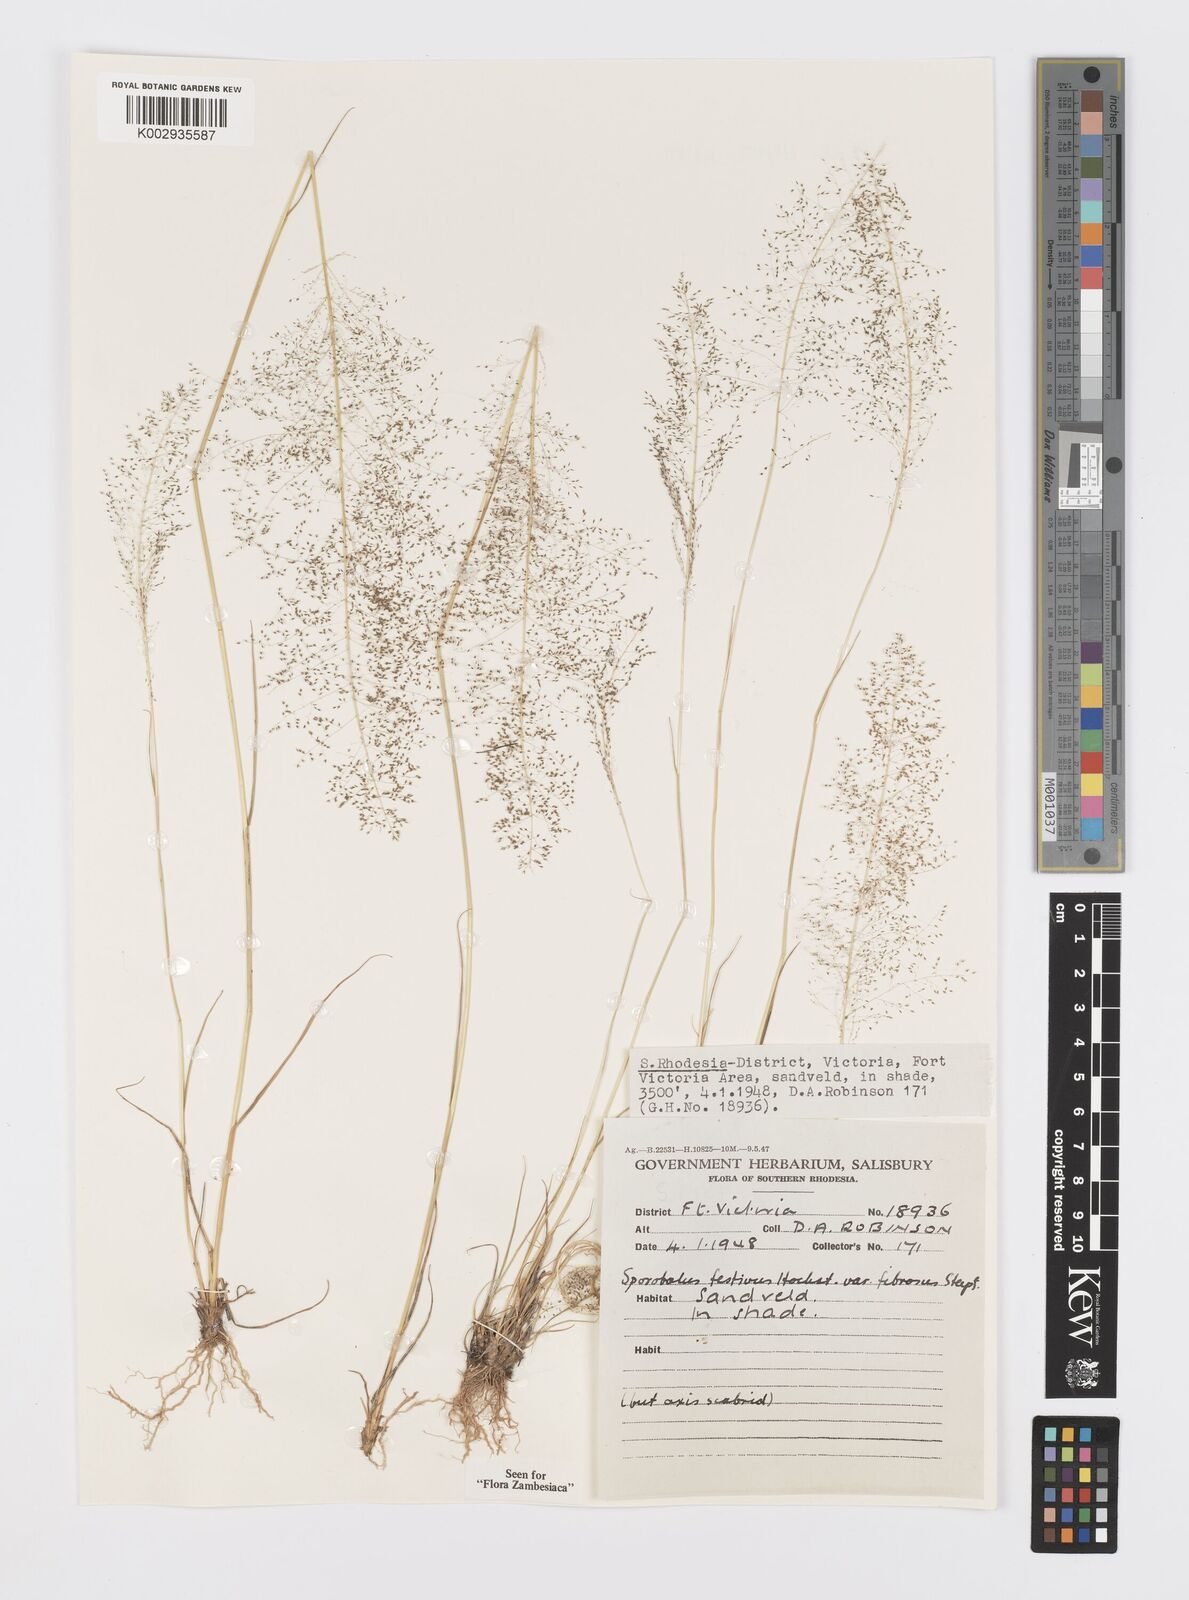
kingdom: Plantae
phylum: Tracheophyta
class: Liliopsida
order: Poales
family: Poaceae
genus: Sporobolus
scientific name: Sporobolus festivus
